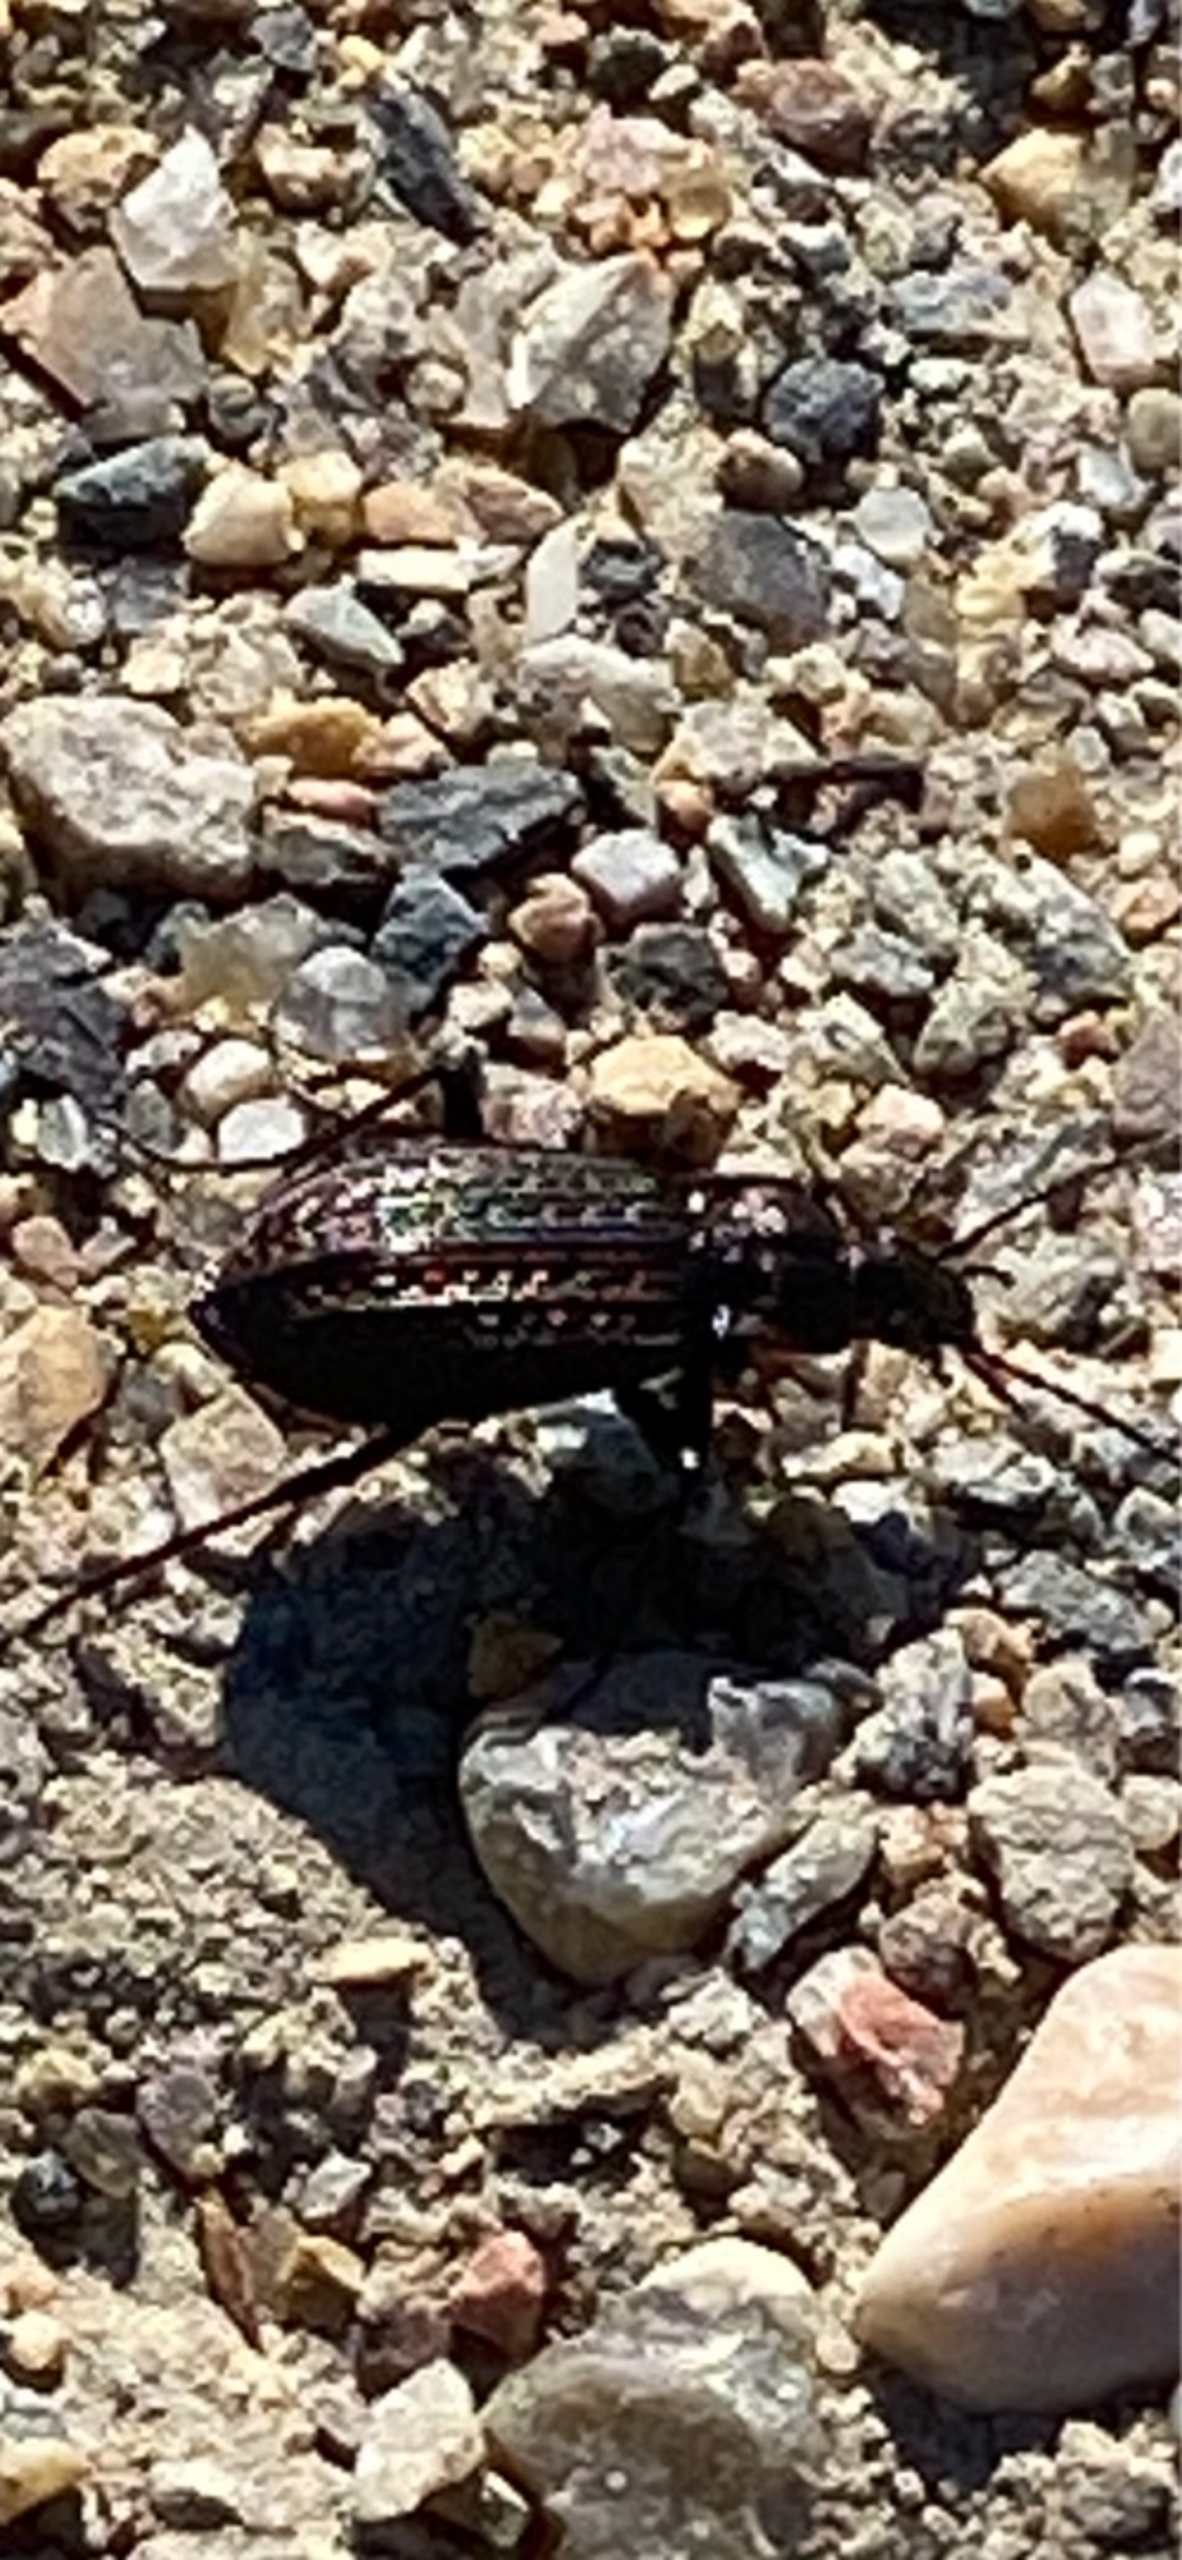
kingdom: Animalia
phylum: Arthropoda
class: Insecta
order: Coleoptera
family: Carabidae
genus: Carabus
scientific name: Carabus granulatus
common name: Kornet løber
